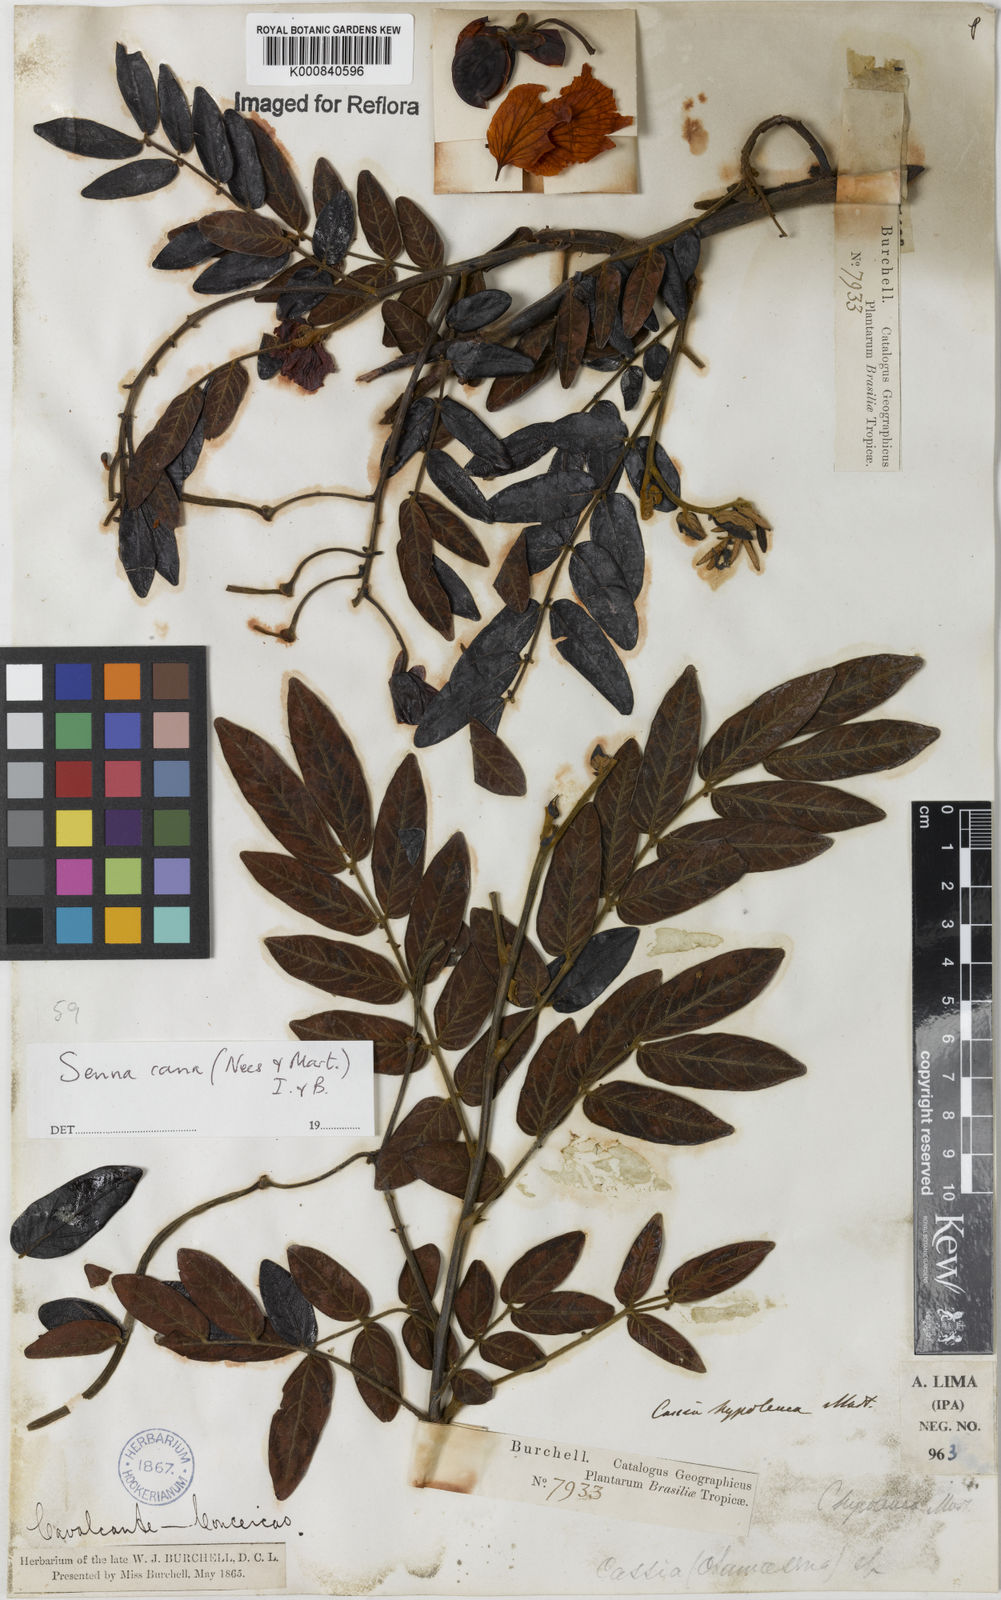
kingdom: Plantae
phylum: Tracheophyta
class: Magnoliopsida
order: Fabales
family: Fabaceae
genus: Senna
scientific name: Senna cana
